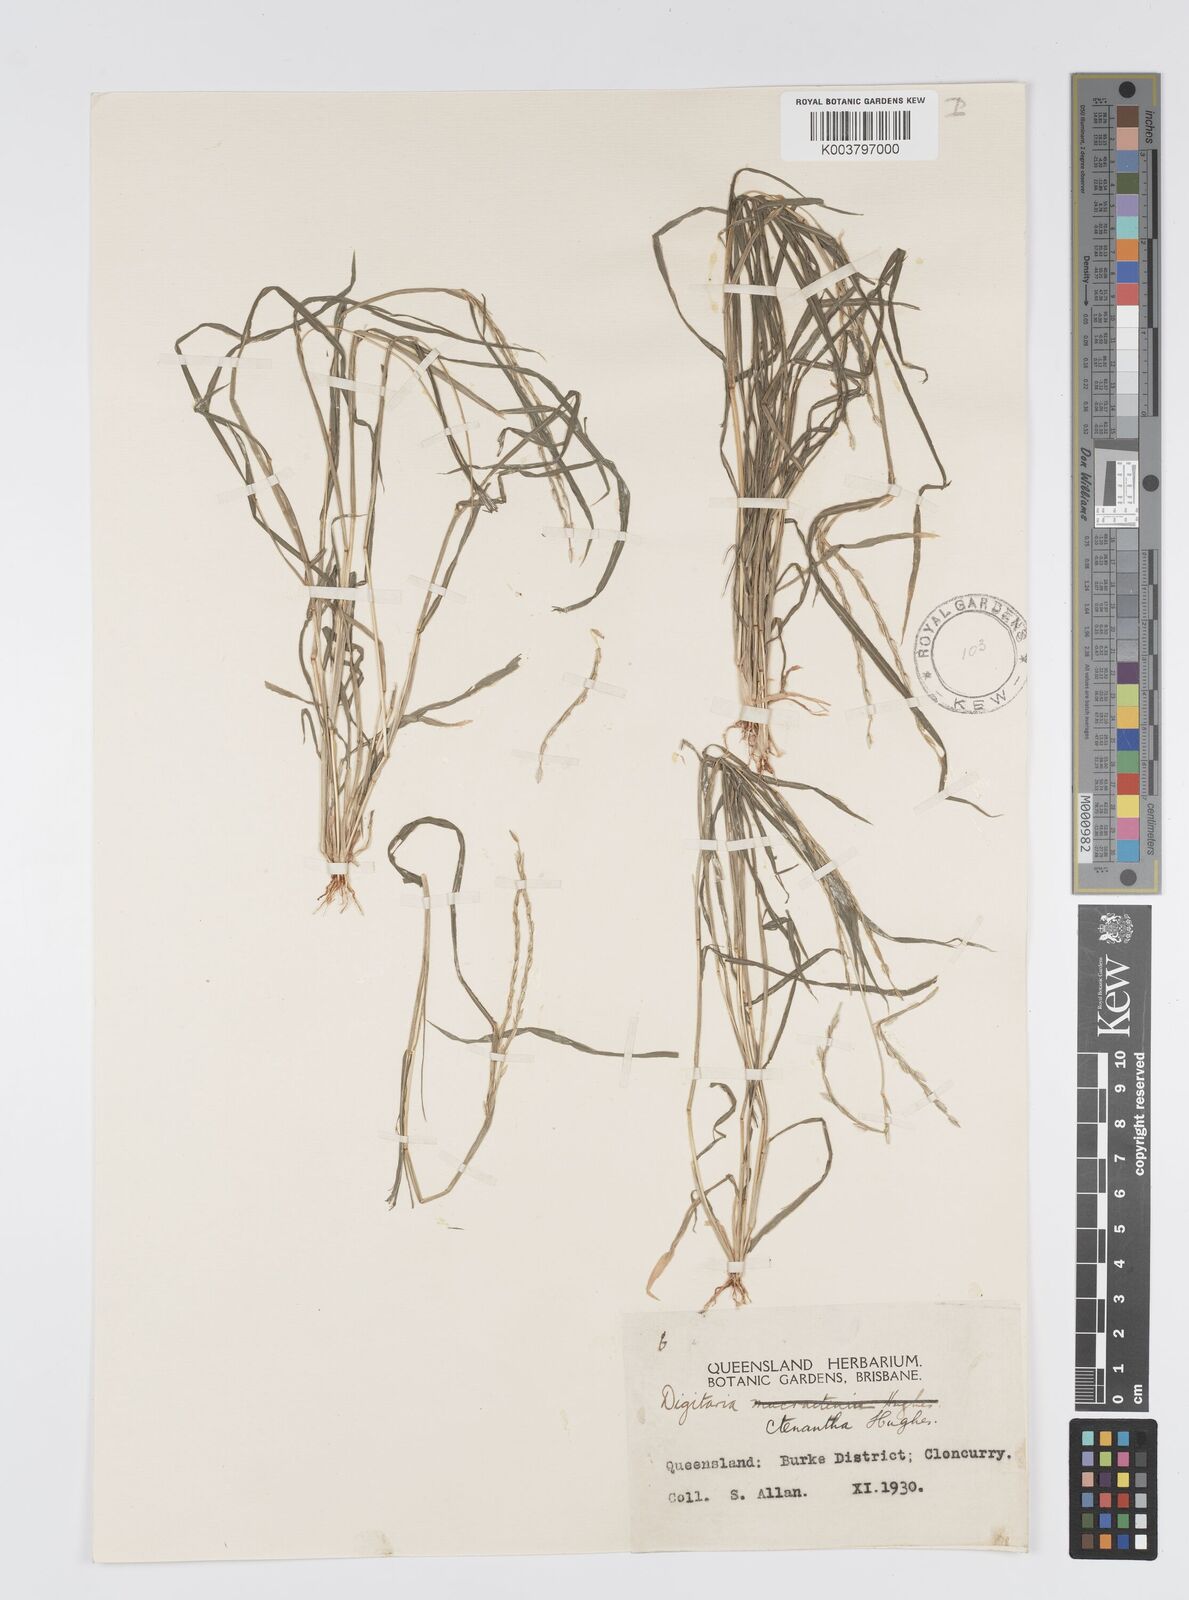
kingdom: Plantae
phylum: Tracheophyta
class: Liliopsida
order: Poales
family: Poaceae
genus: Digitaria
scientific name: Digitaria ctenantha
